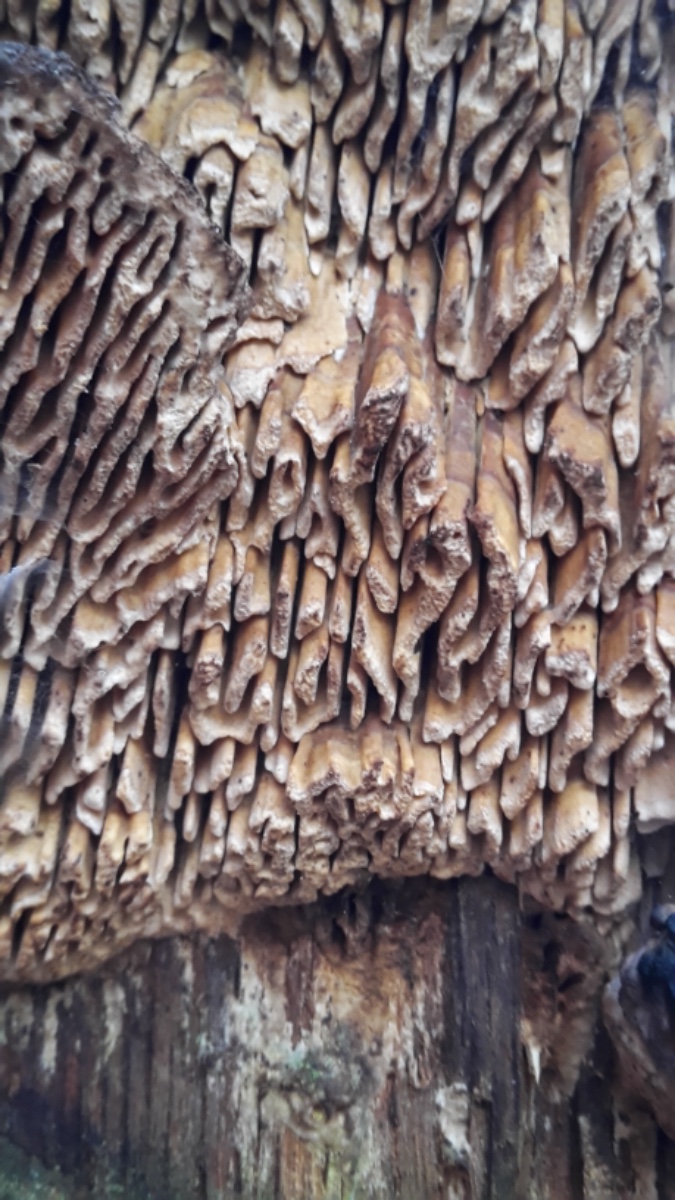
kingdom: Fungi
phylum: Basidiomycota
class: Agaricomycetes
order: Polyporales
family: Fomitopsidaceae
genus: Daedalea
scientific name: Daedalea quercina
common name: ege-labyrintsvamp
